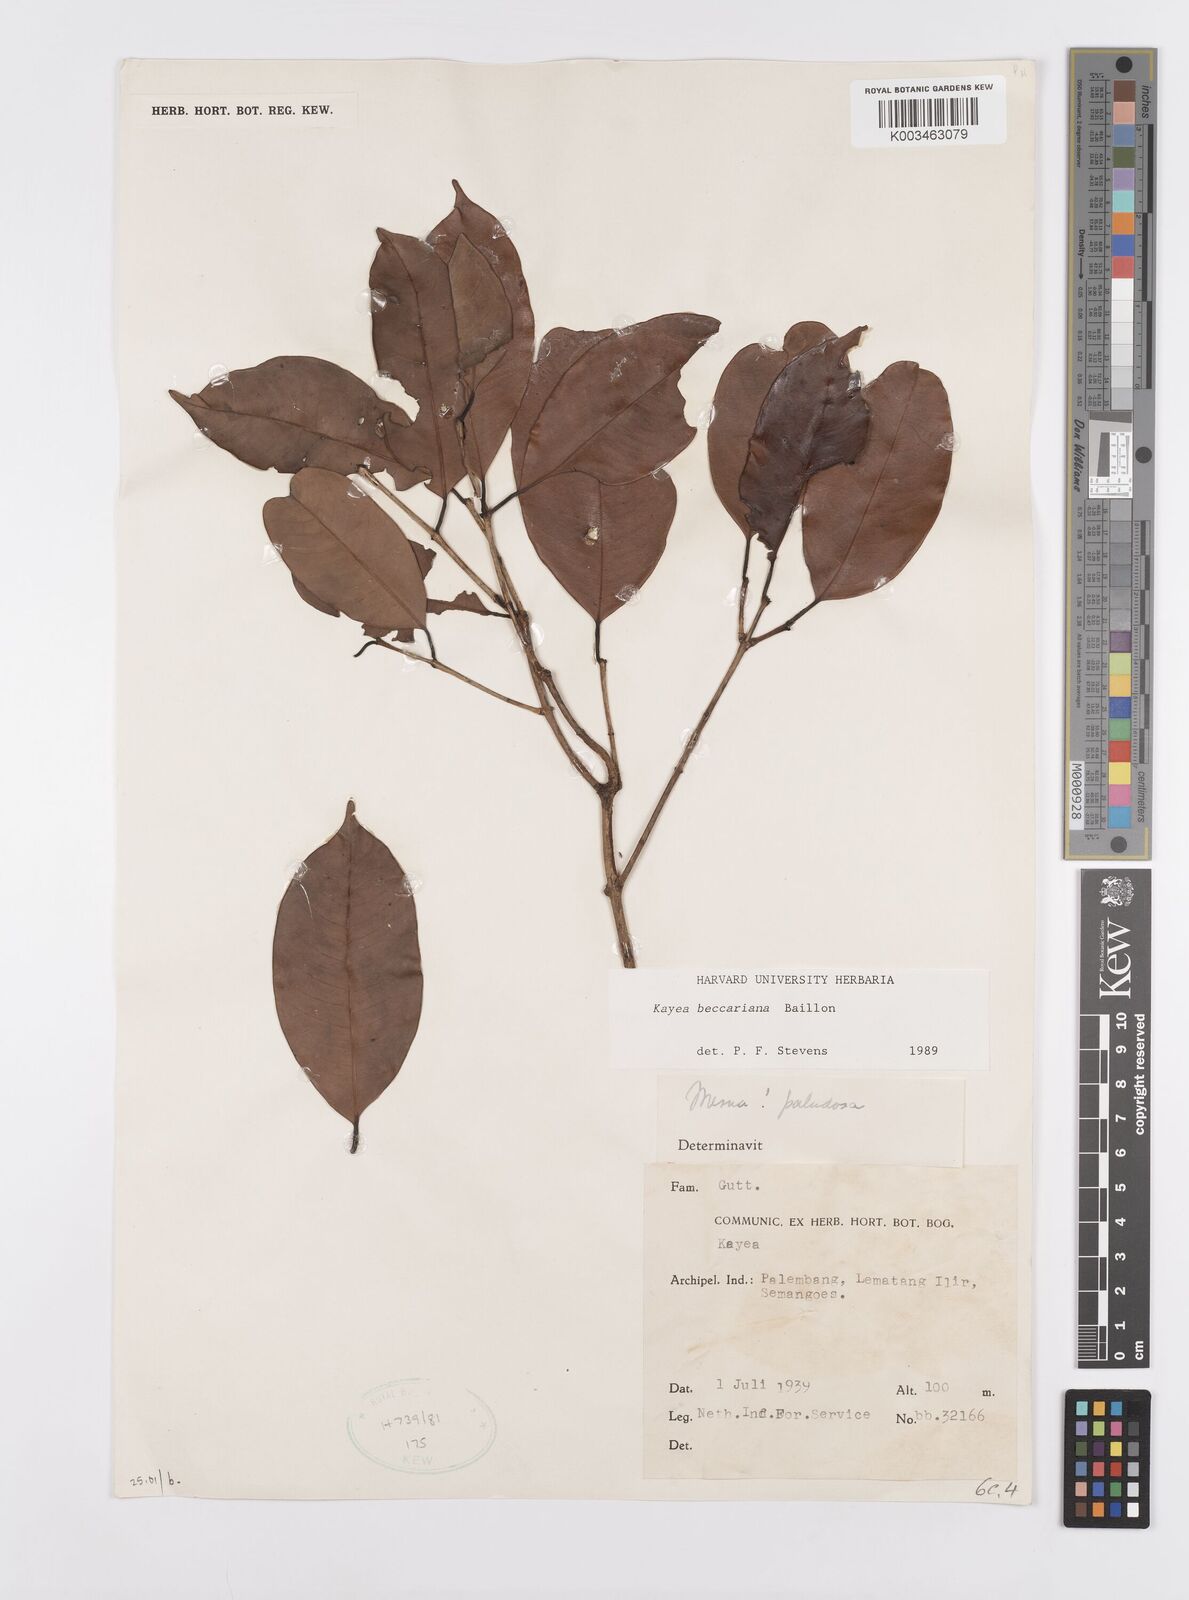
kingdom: Plantae
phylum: Tracheophyta
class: Magnoliopsida
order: Malpighiales
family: Calophyllaceae
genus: Kayea
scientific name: Kayea beccariana
